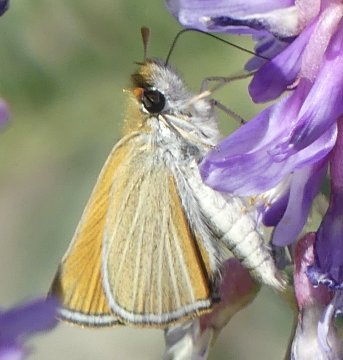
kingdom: Animalia
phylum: Arthropoda
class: Insecta
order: Lepidoptera
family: Hesperiidae
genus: Oarisma
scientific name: Oarisma garita
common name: Garita Skipperling
